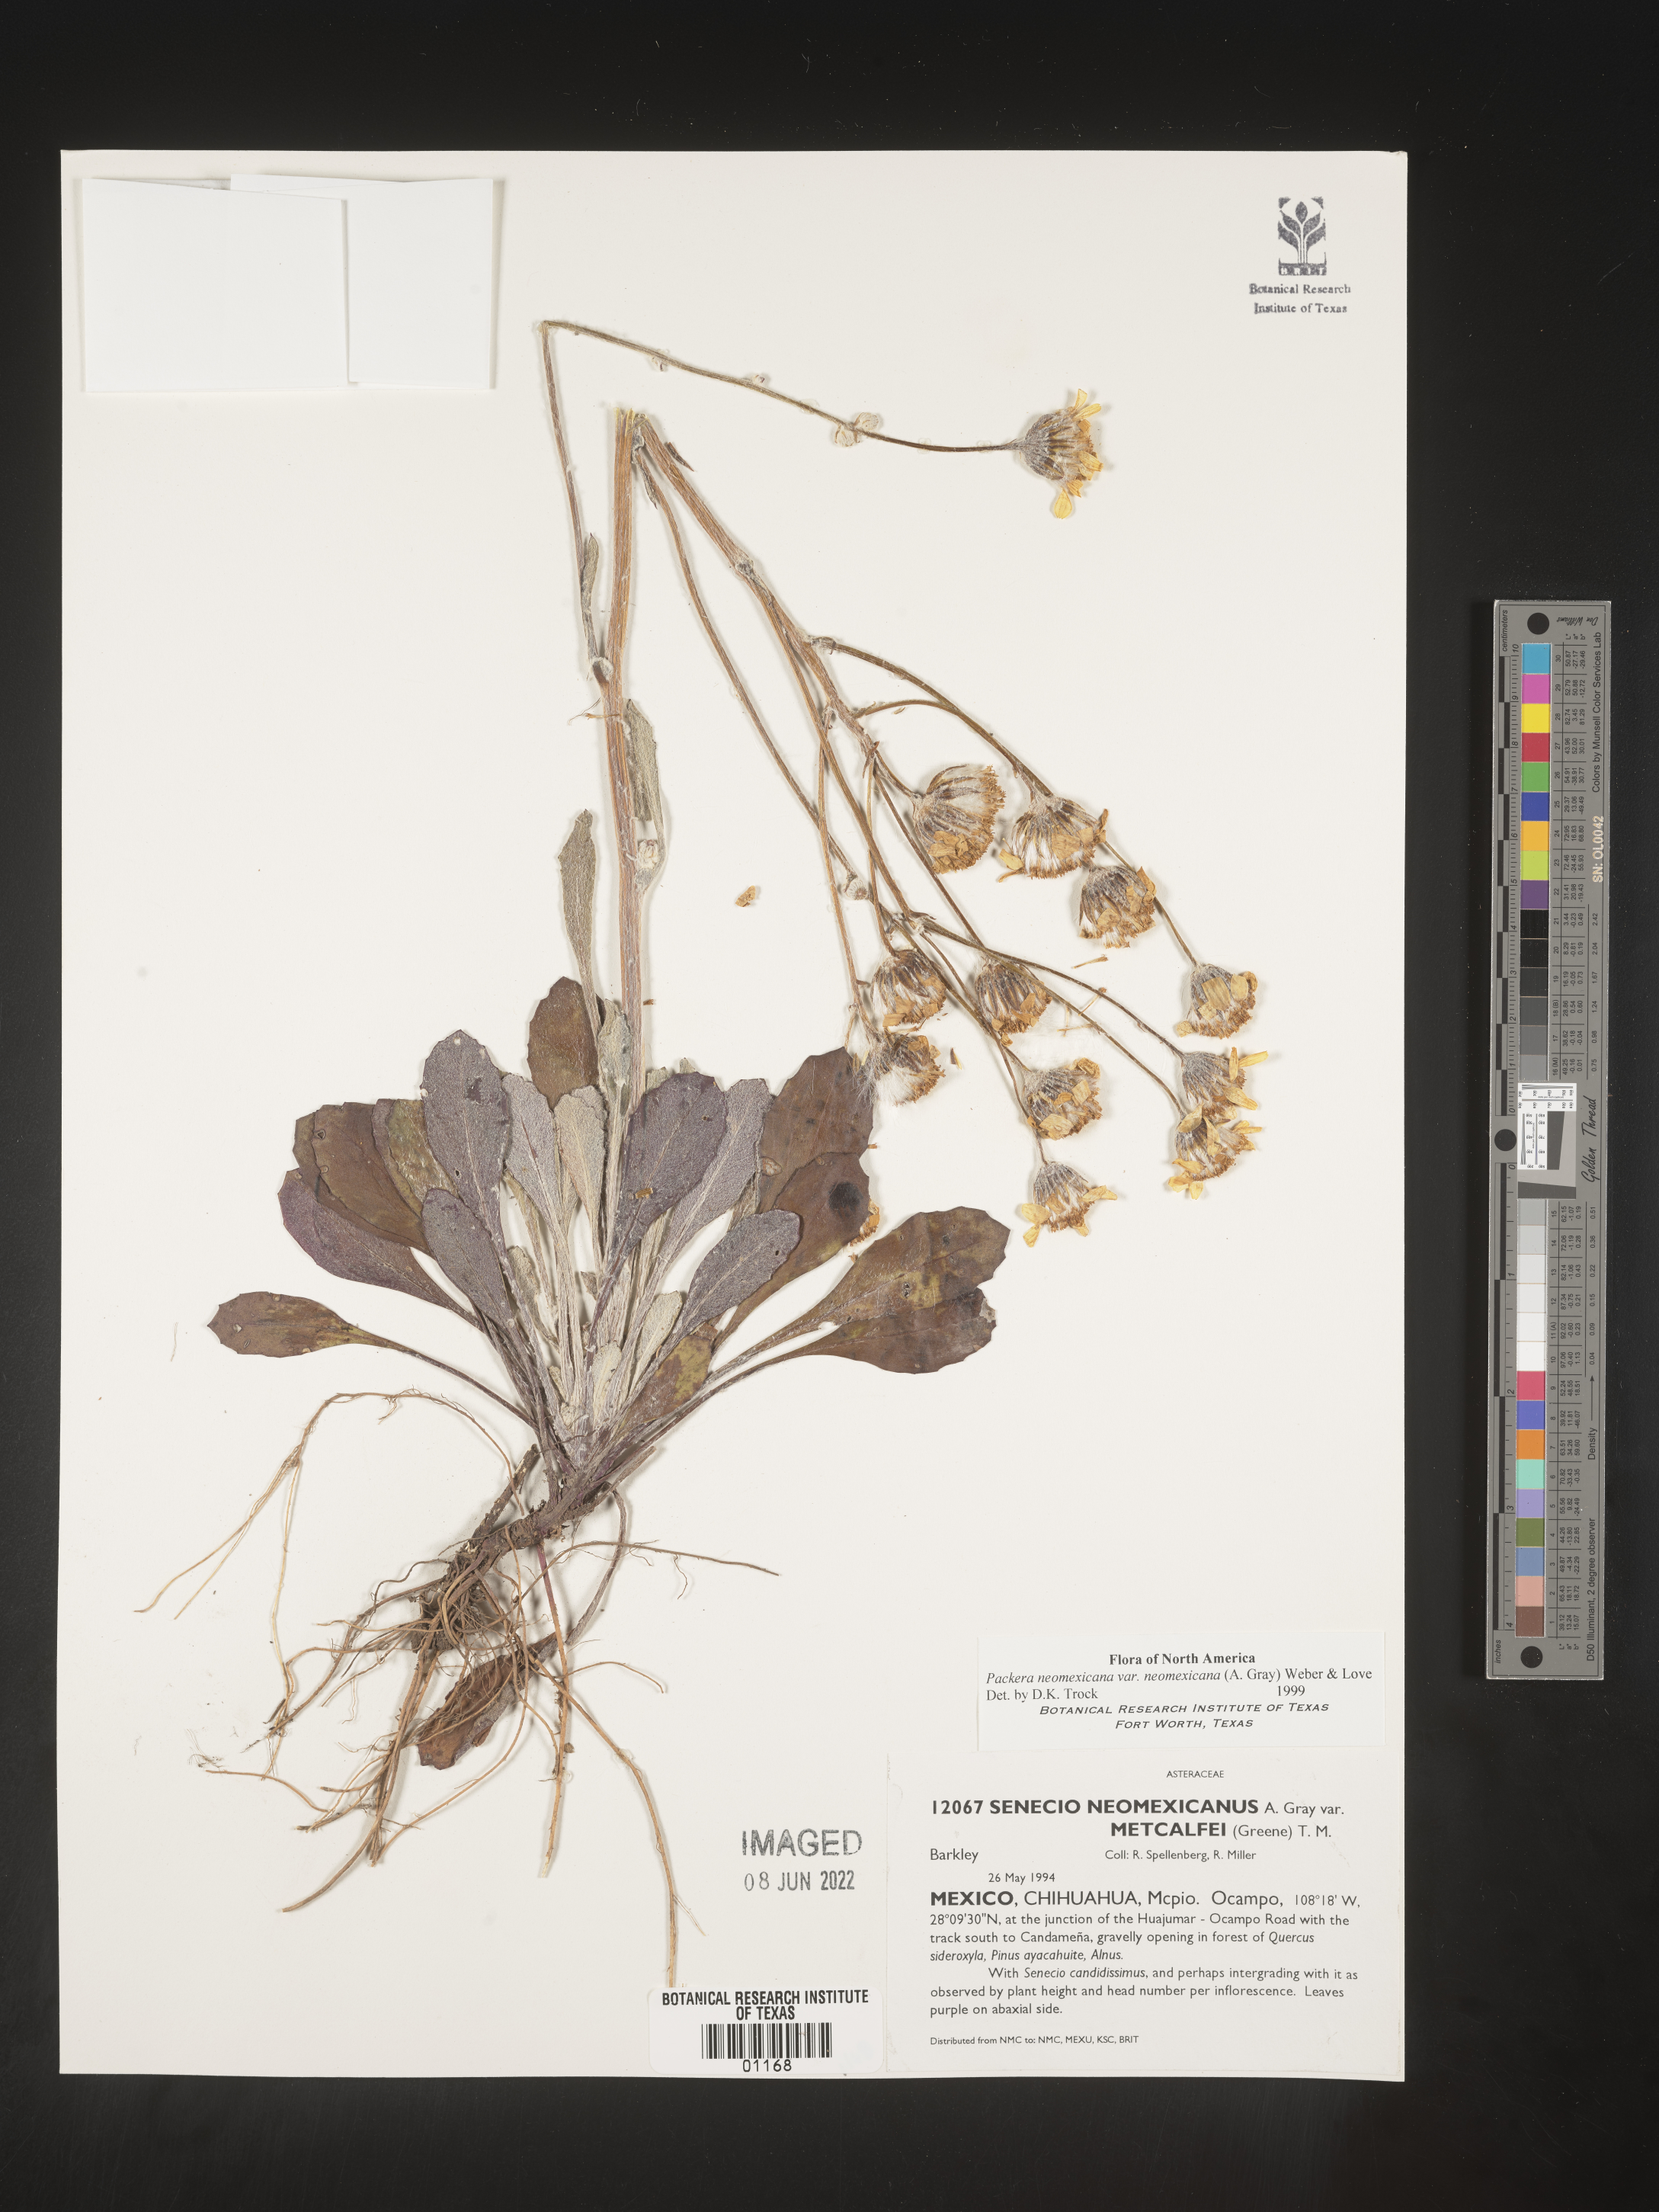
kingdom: Plantae
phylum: Tracheophyta
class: Magnoliopsida
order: Asterales
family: Asteraceae
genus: Packera
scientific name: Packera
